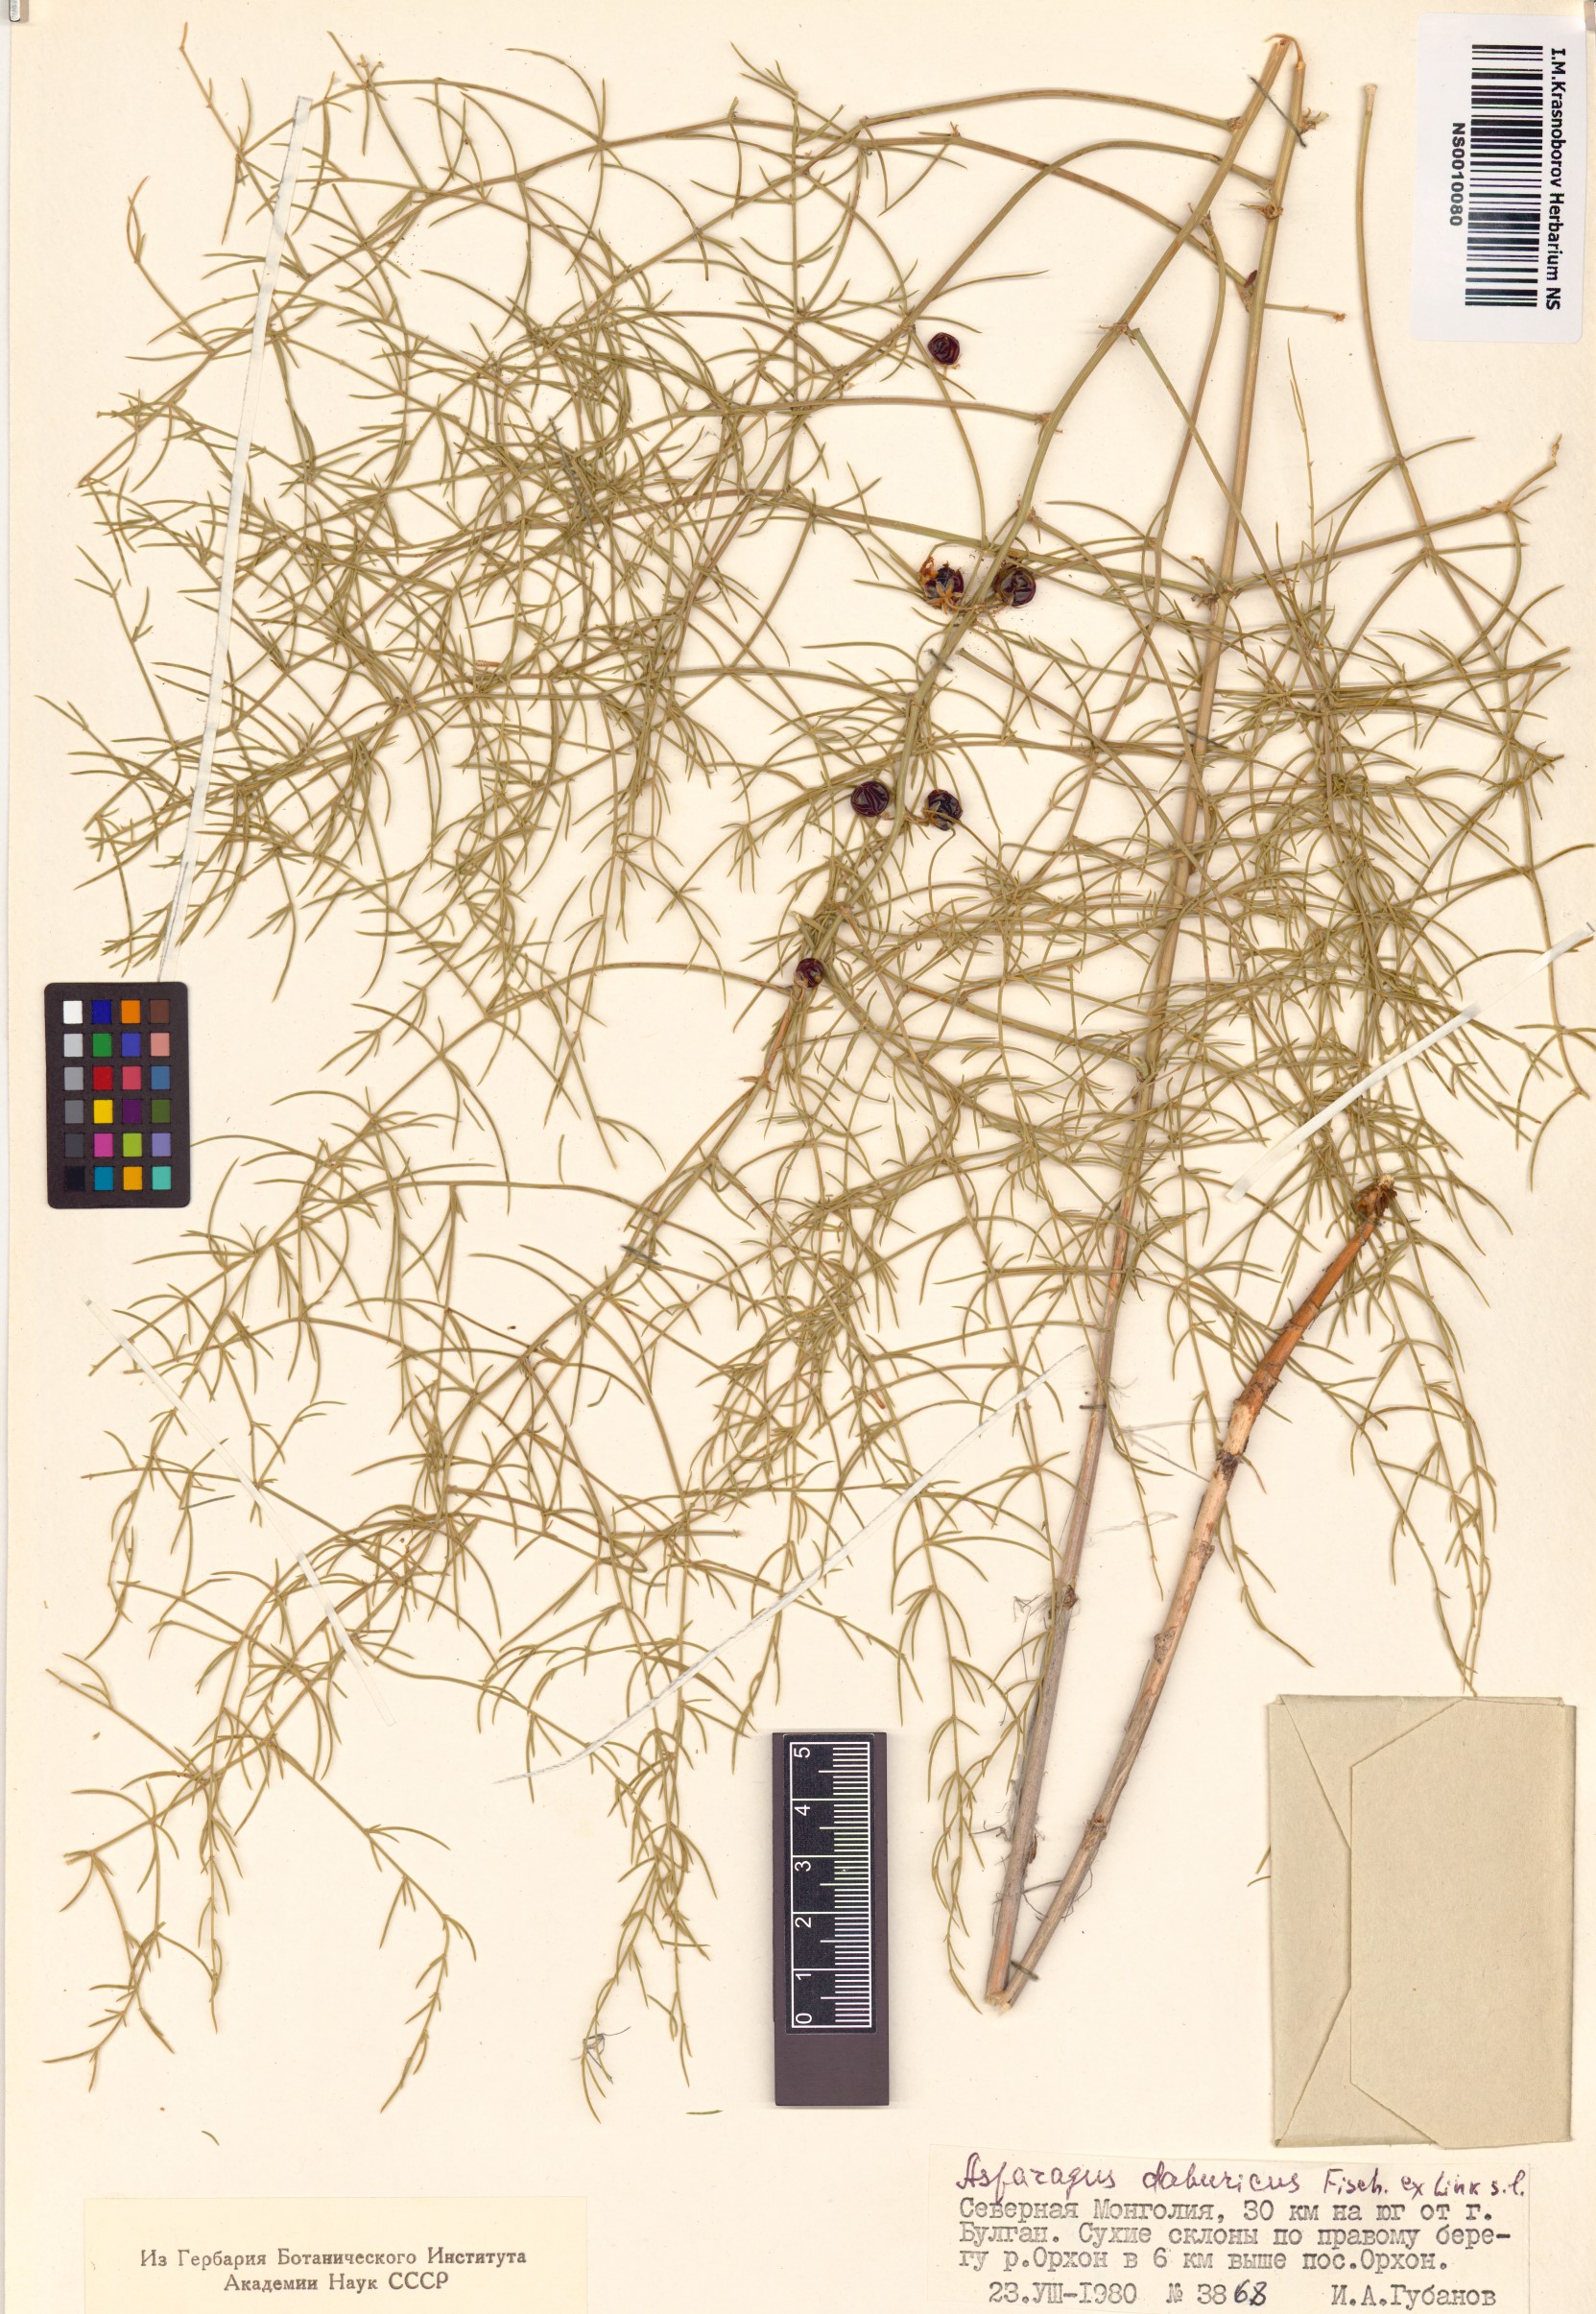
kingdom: Plantae
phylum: Tracheophyta
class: Liliopsida
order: Asparagales
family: Asparagaceae
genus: Asparagus
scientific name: Asparagus dauricus
